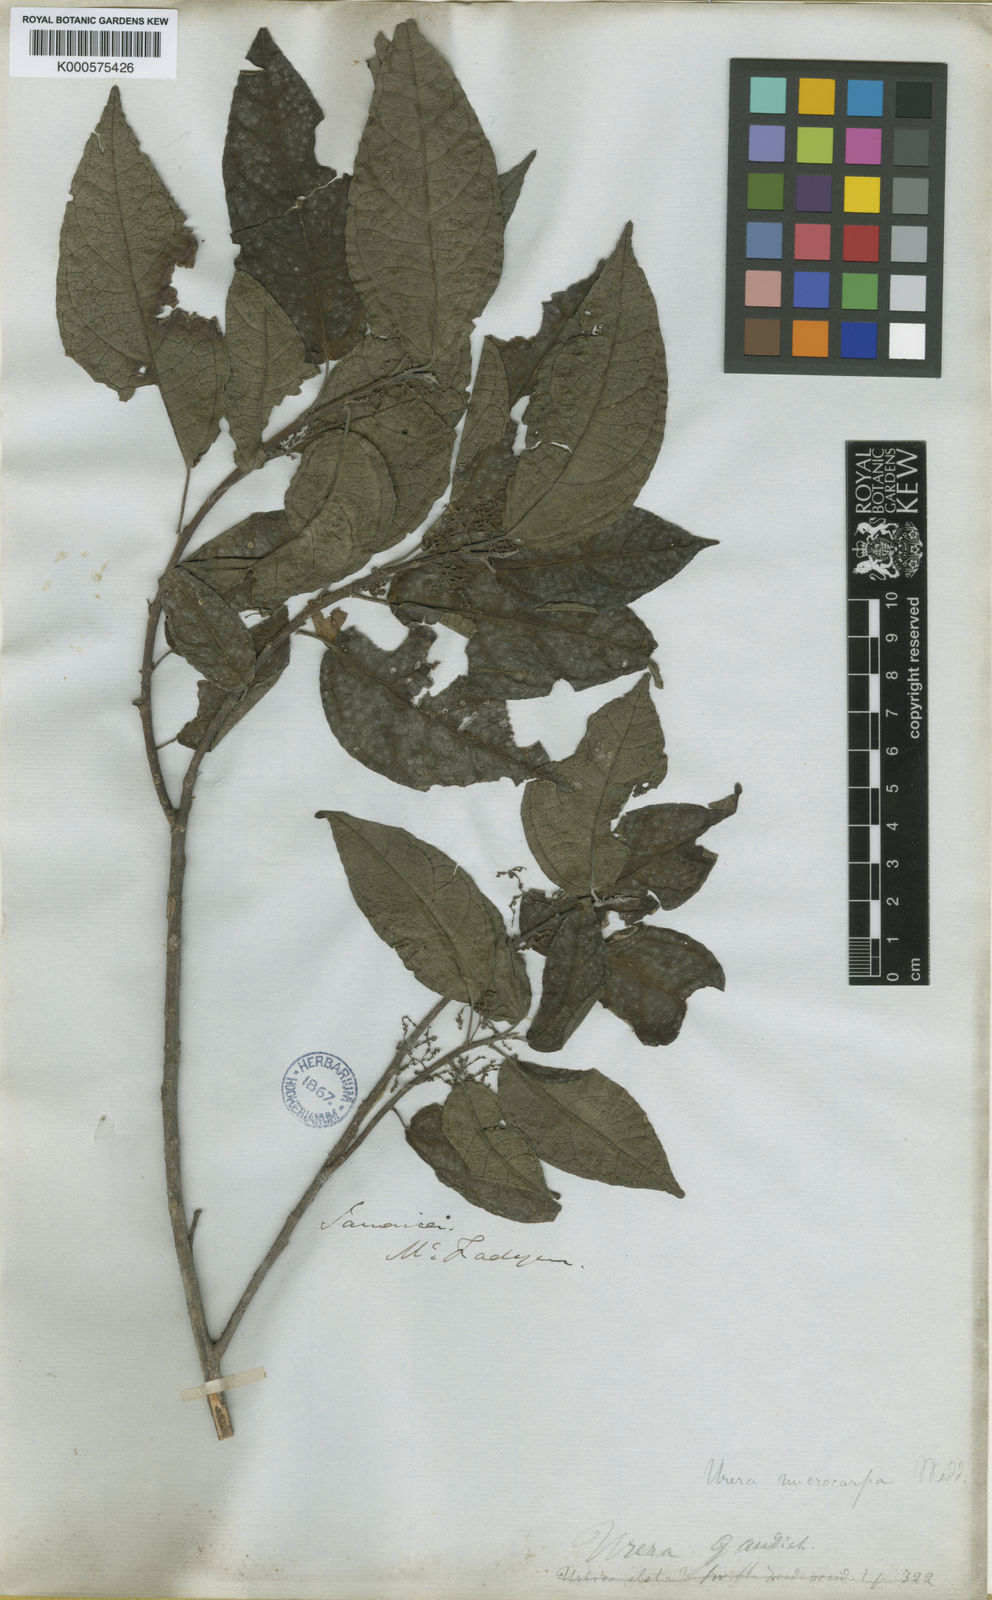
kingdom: Plantae
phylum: Tracheophyta
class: Magnoliopsida
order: Rosales
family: Urticaceae
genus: Gyrotaenia
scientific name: Gyrotaenia microcarpa
